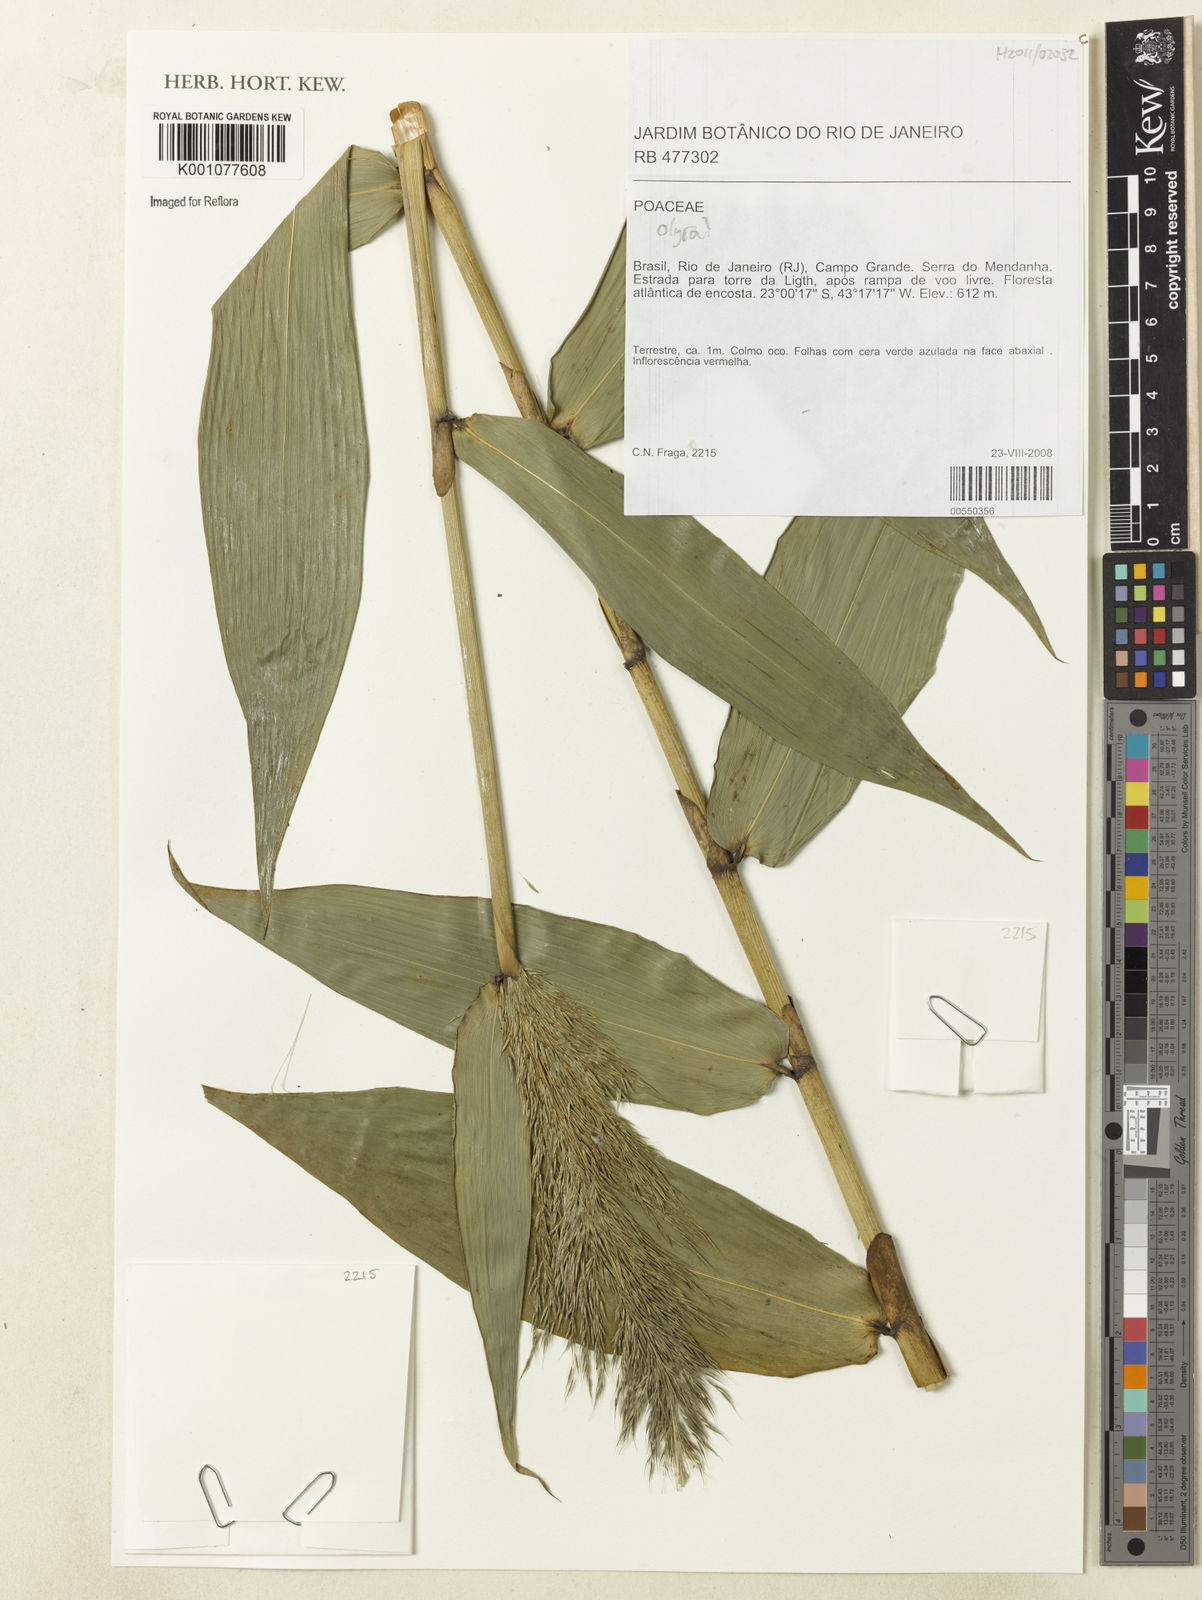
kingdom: Plantae
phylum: Tracheophyta
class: Liliopsida
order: Poales
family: Poaceae
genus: Olyra
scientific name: Olyra
